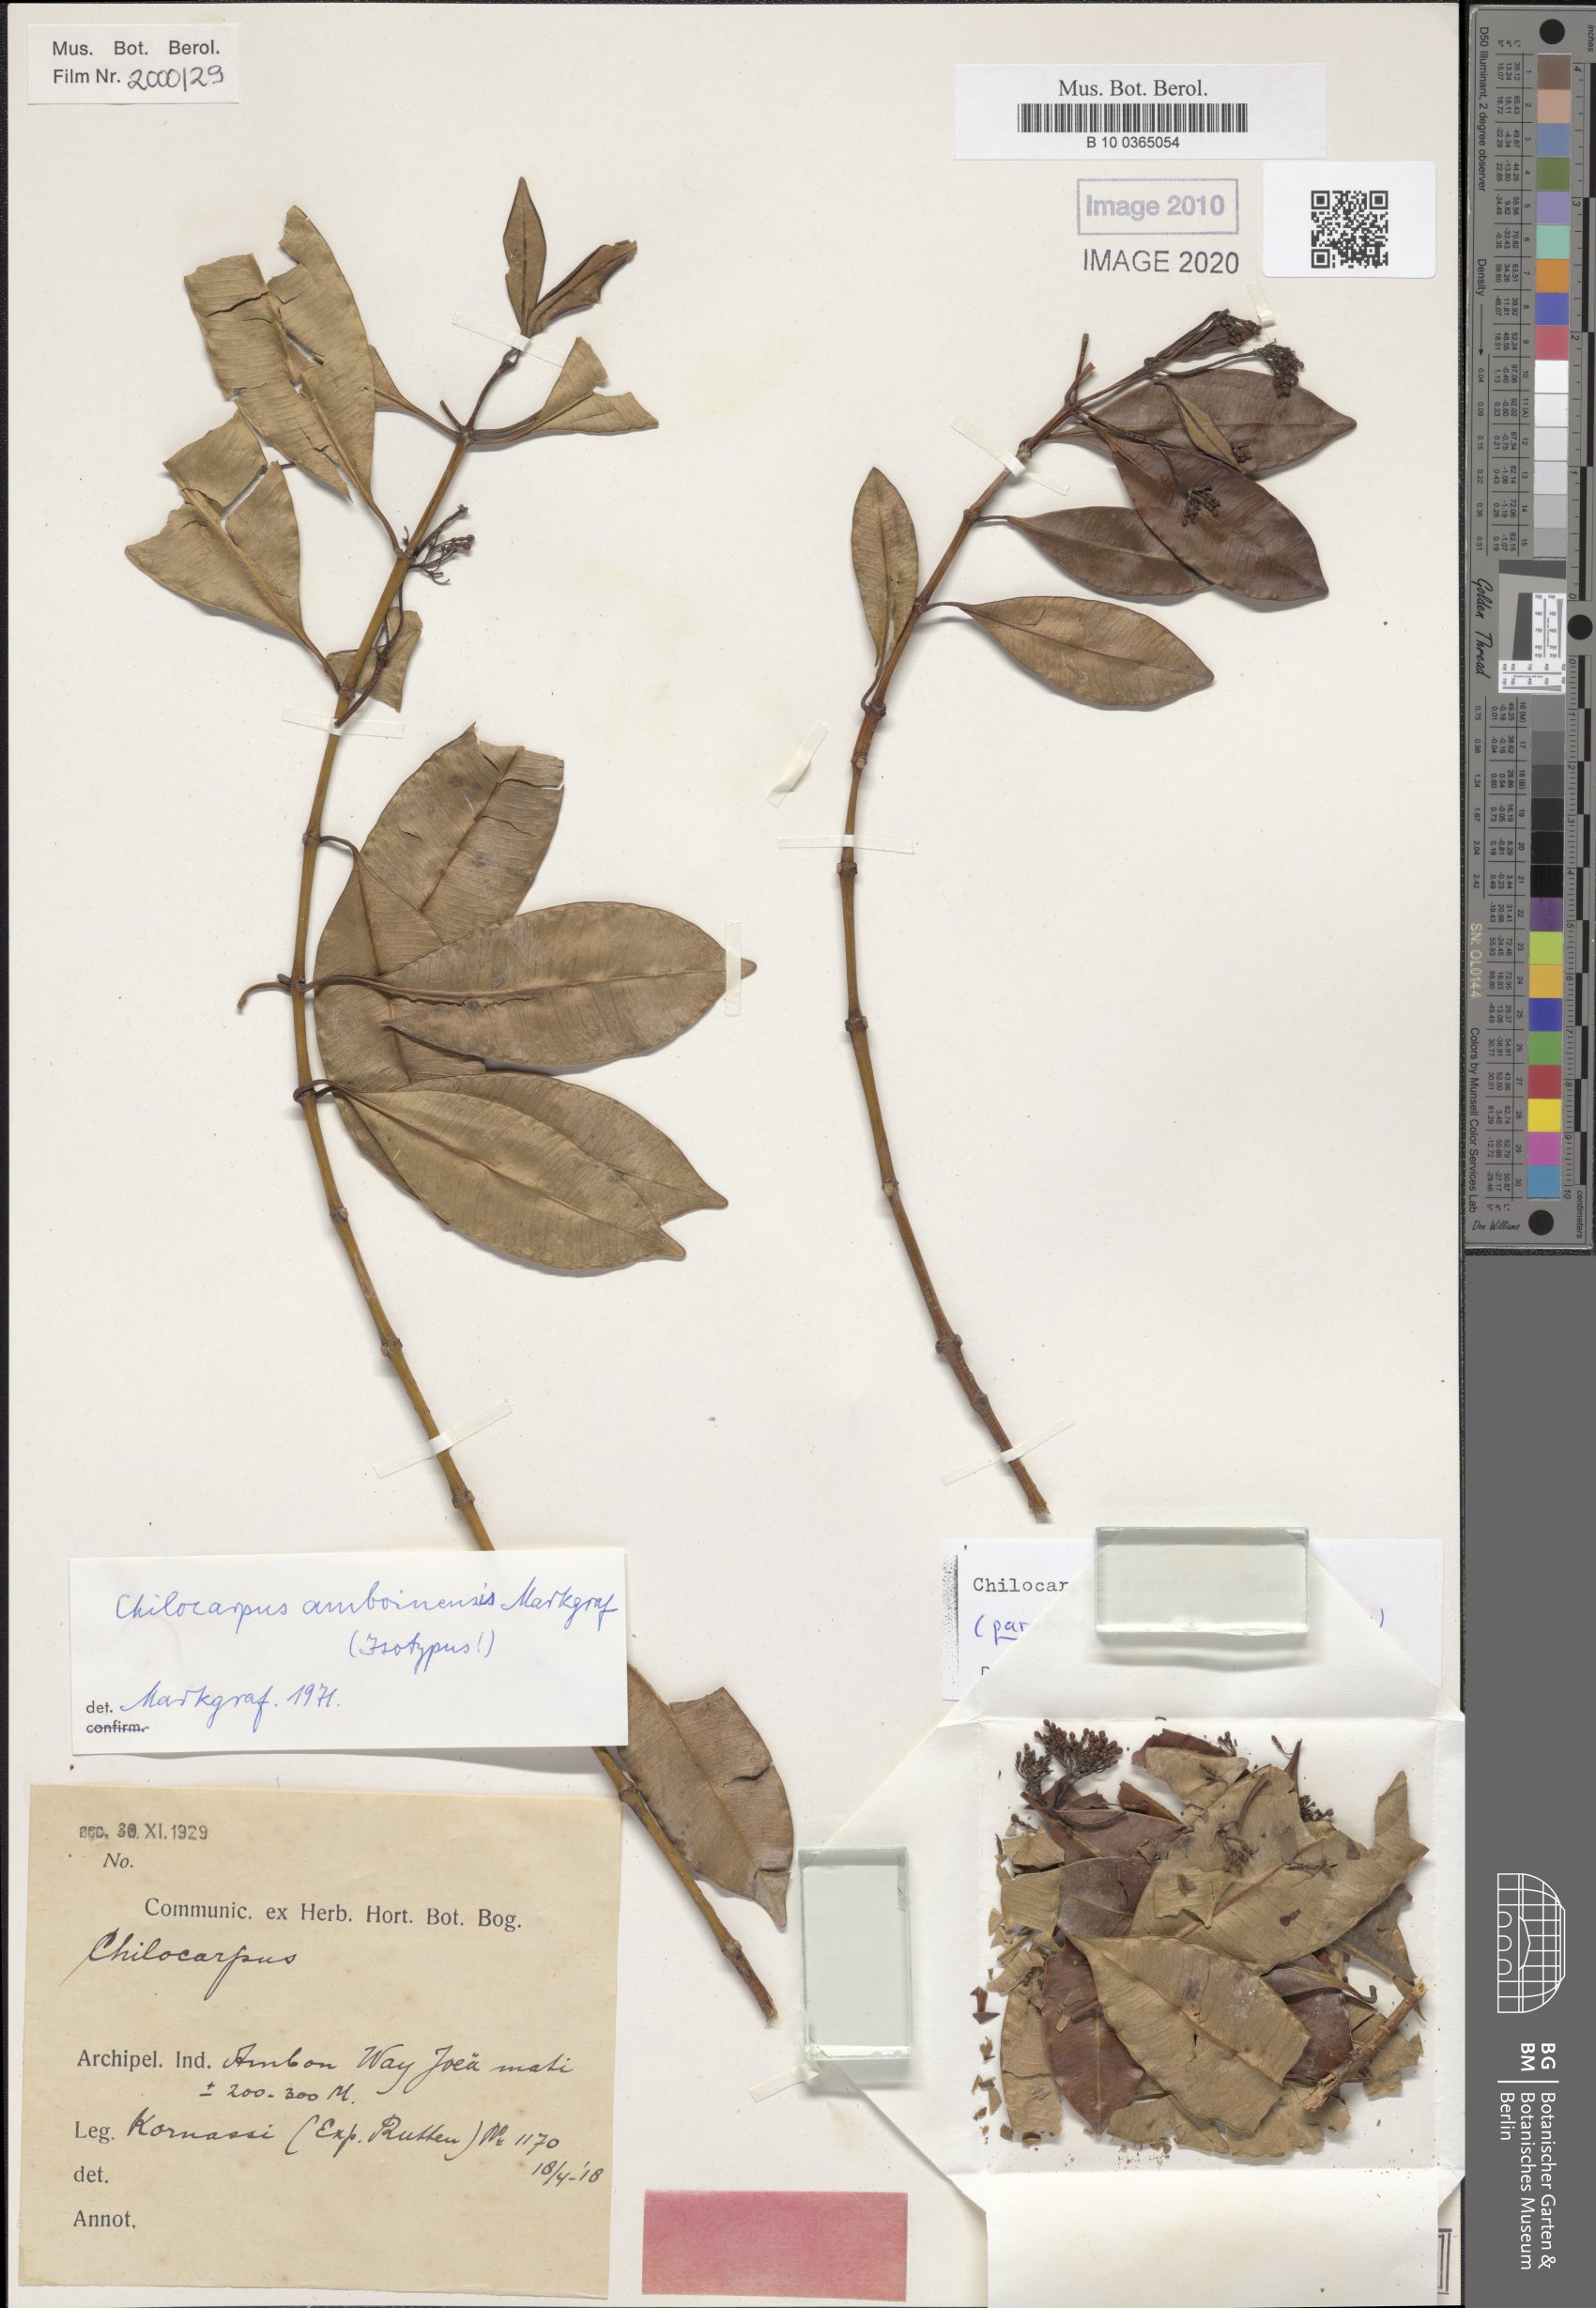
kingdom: Plantae
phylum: Tracheophyta
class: Magnoliopsida
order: Gentianales
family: Apocynaceae
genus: Chilocarpus
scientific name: Chilocarpus denudatus
